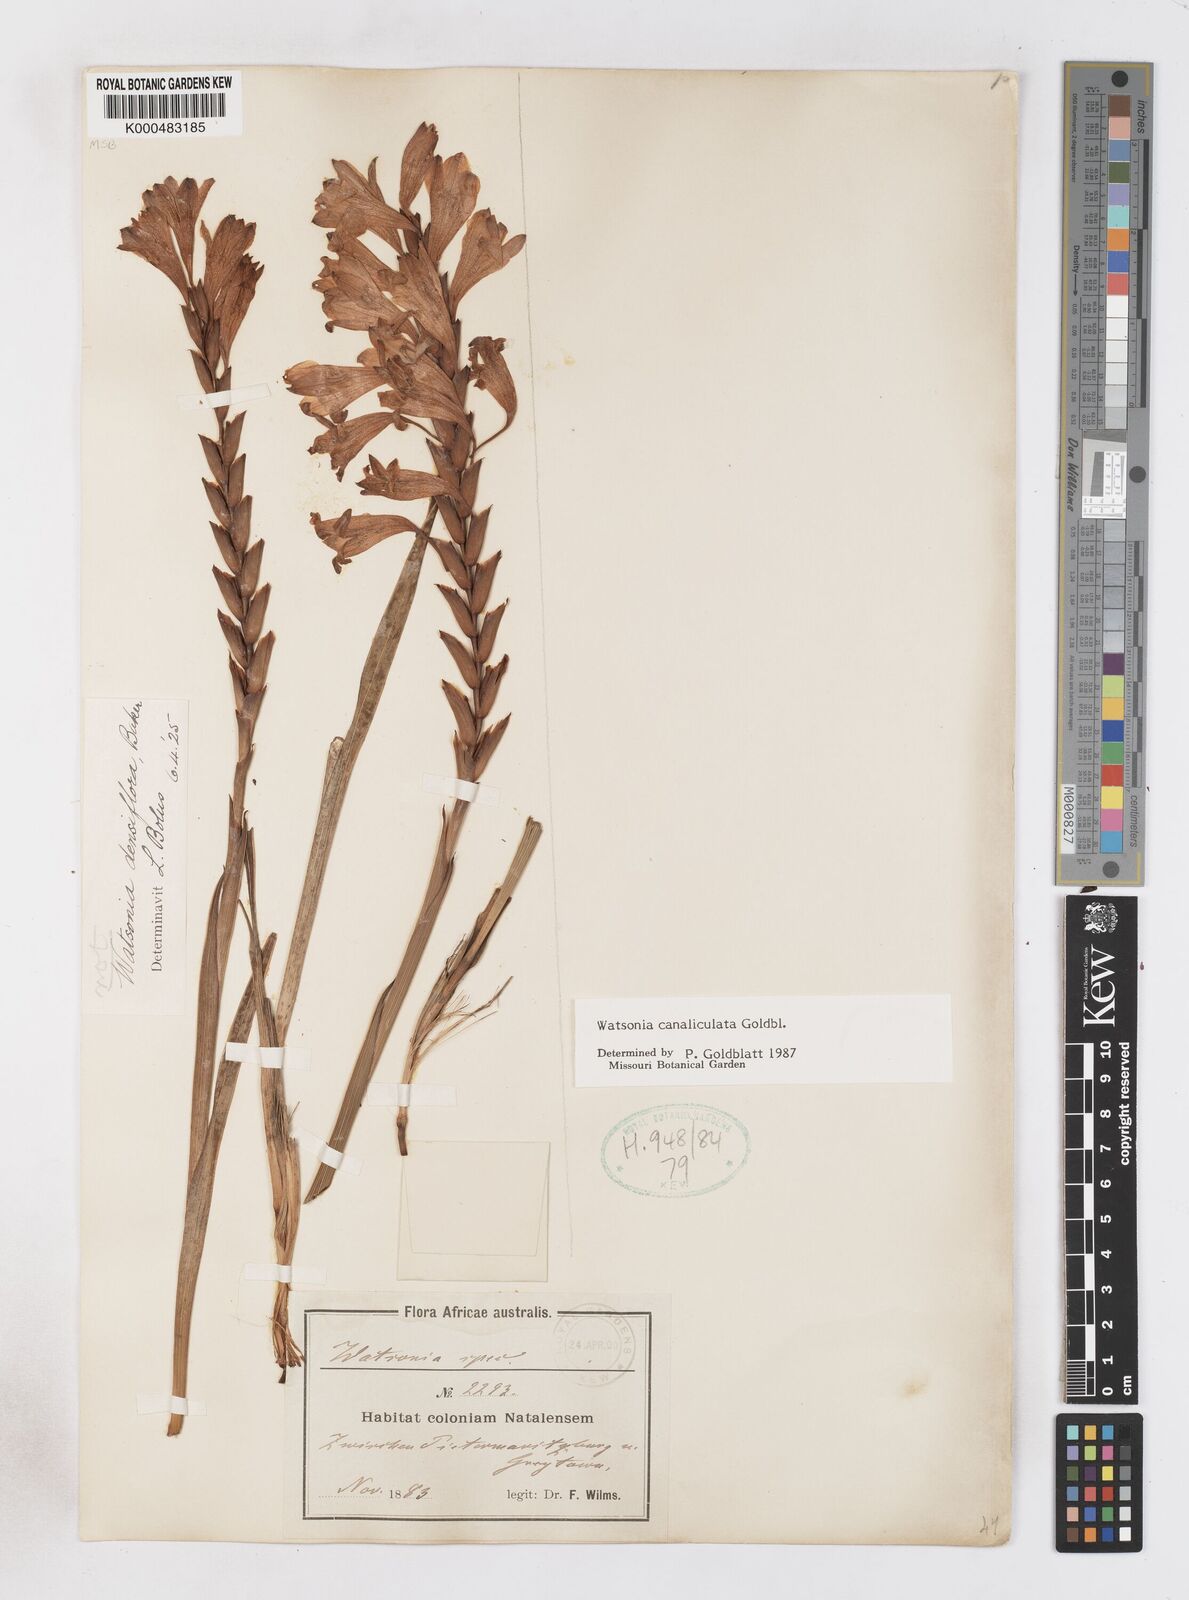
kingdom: Plantae
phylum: Tracheophyta
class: Liliopsida
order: Asparagales
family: Iridaceae
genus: Watsonia
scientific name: Watsonia canaliculata
